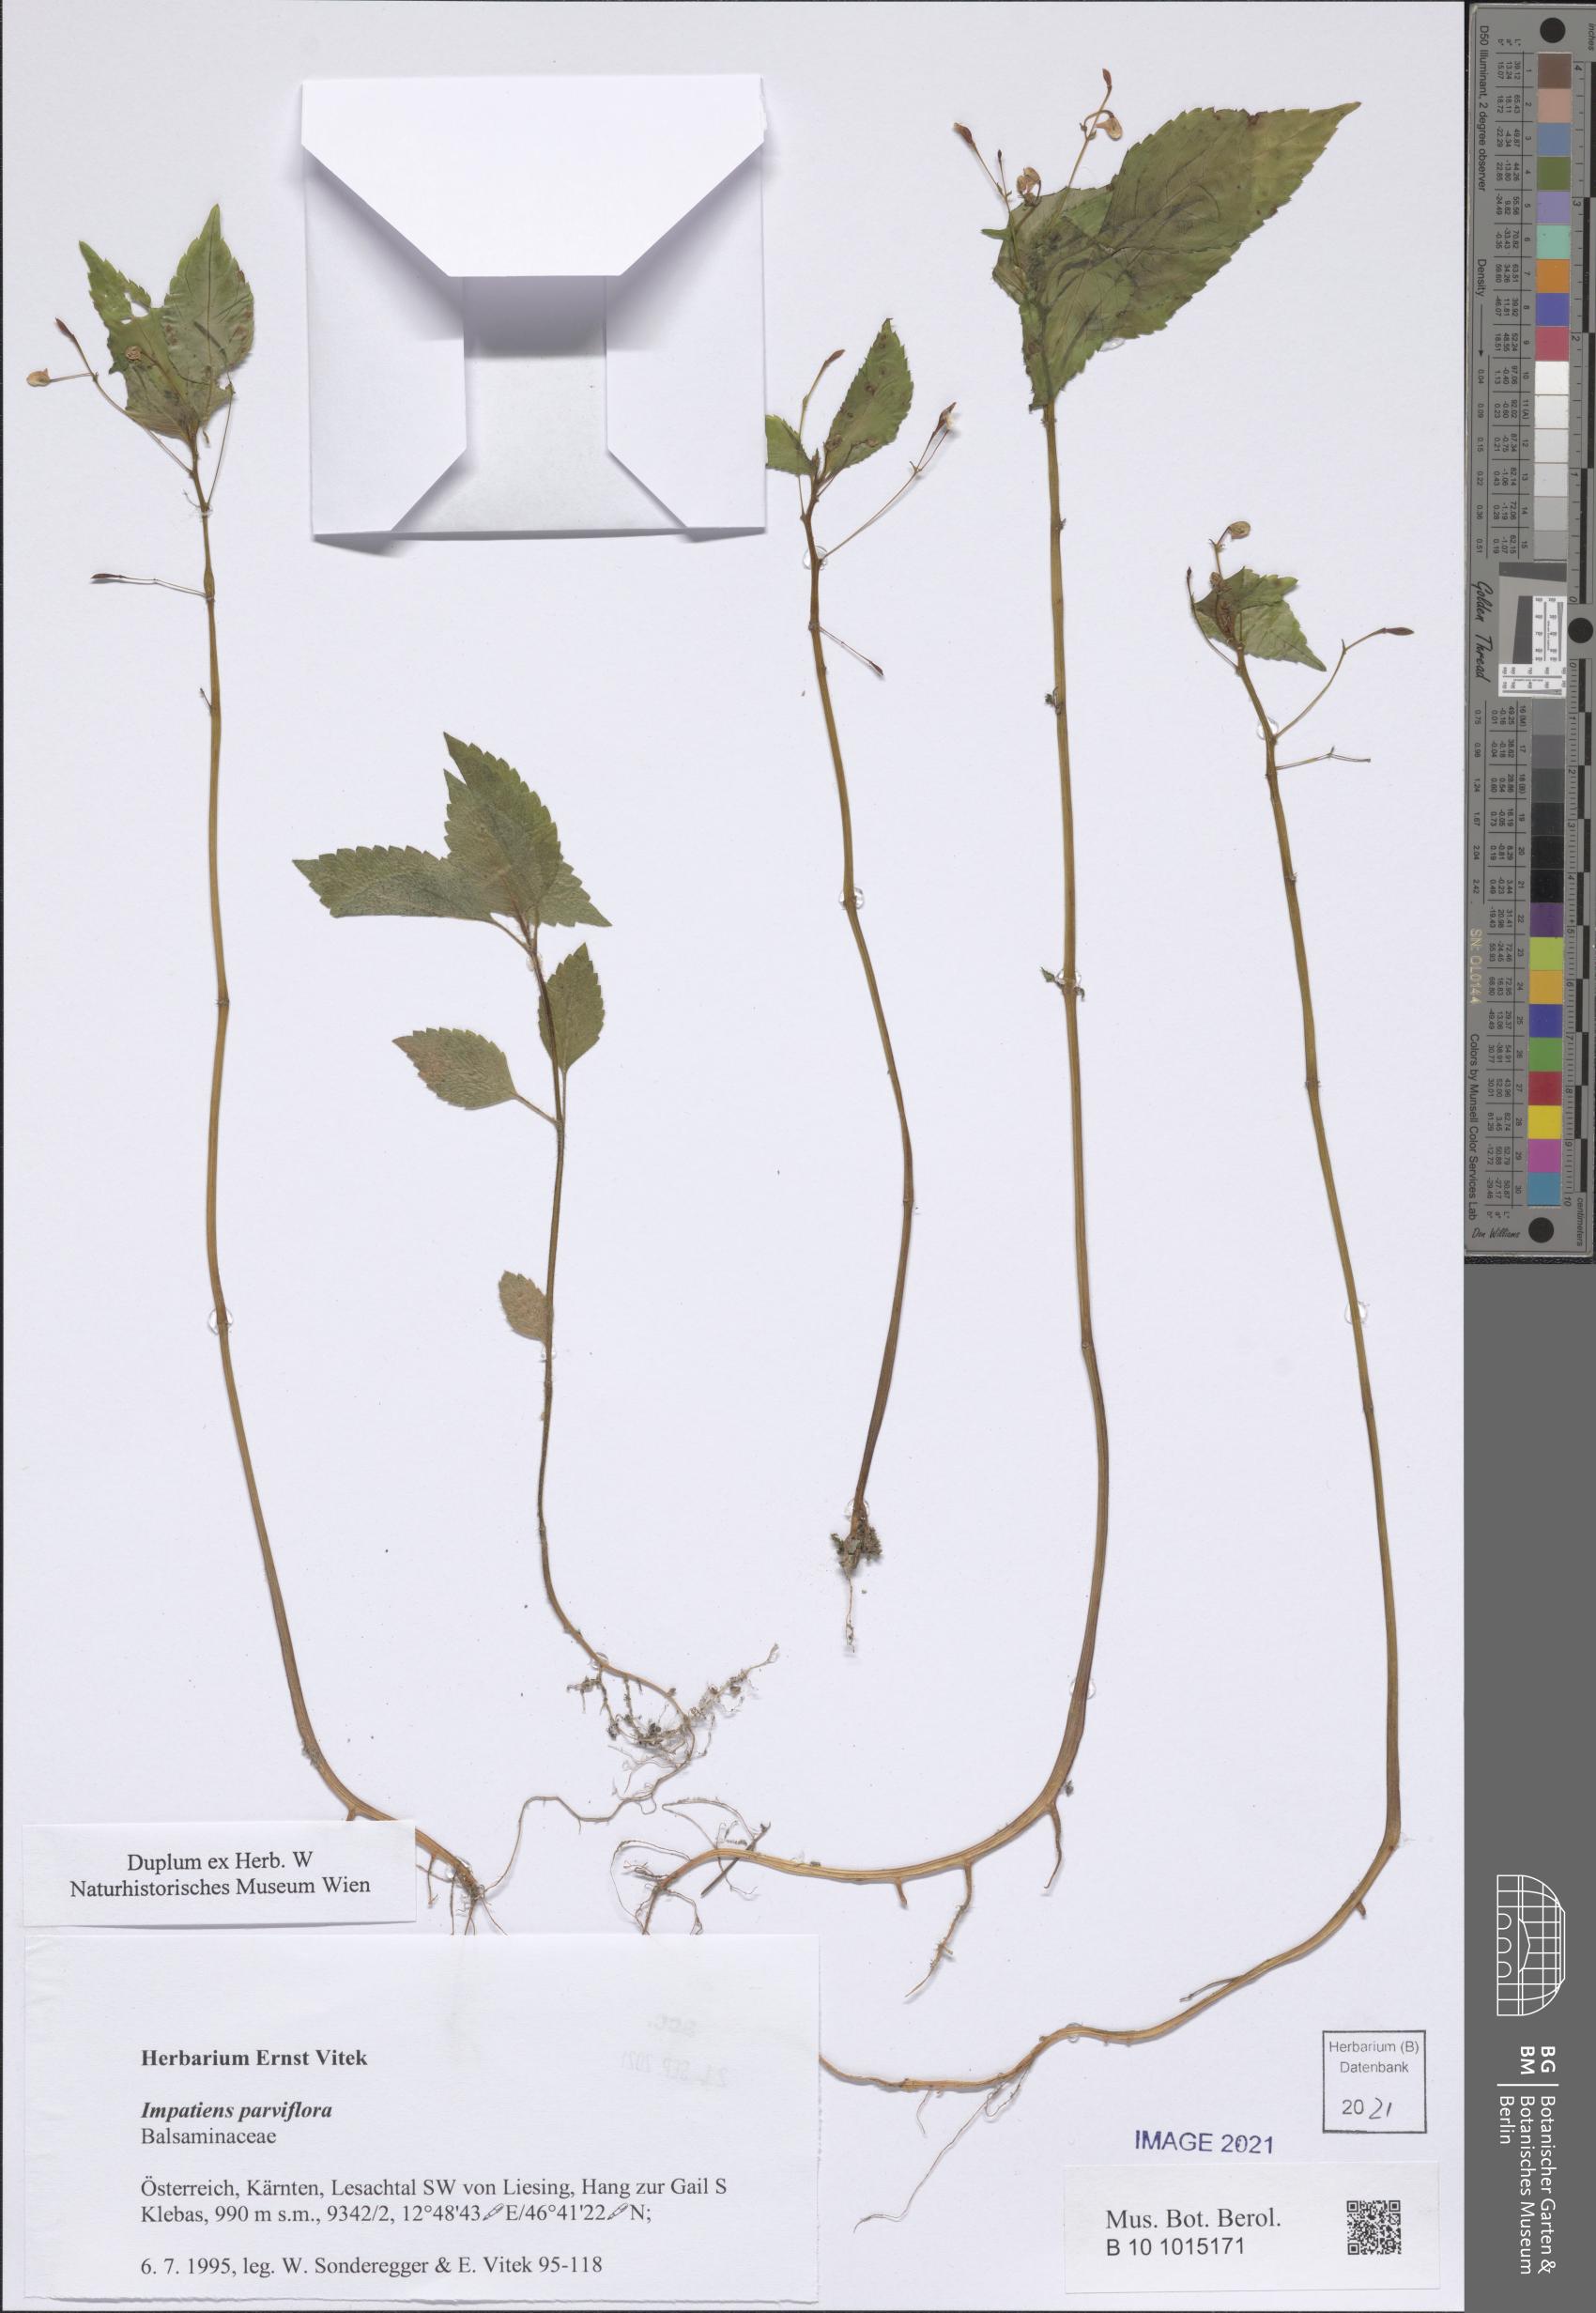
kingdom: Plantae
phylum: Tracheophyta
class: Magnoliopsida
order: Ericales
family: Balsaminaceae
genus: Impatiens
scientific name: Impatiens parviflora
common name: Small balsam
